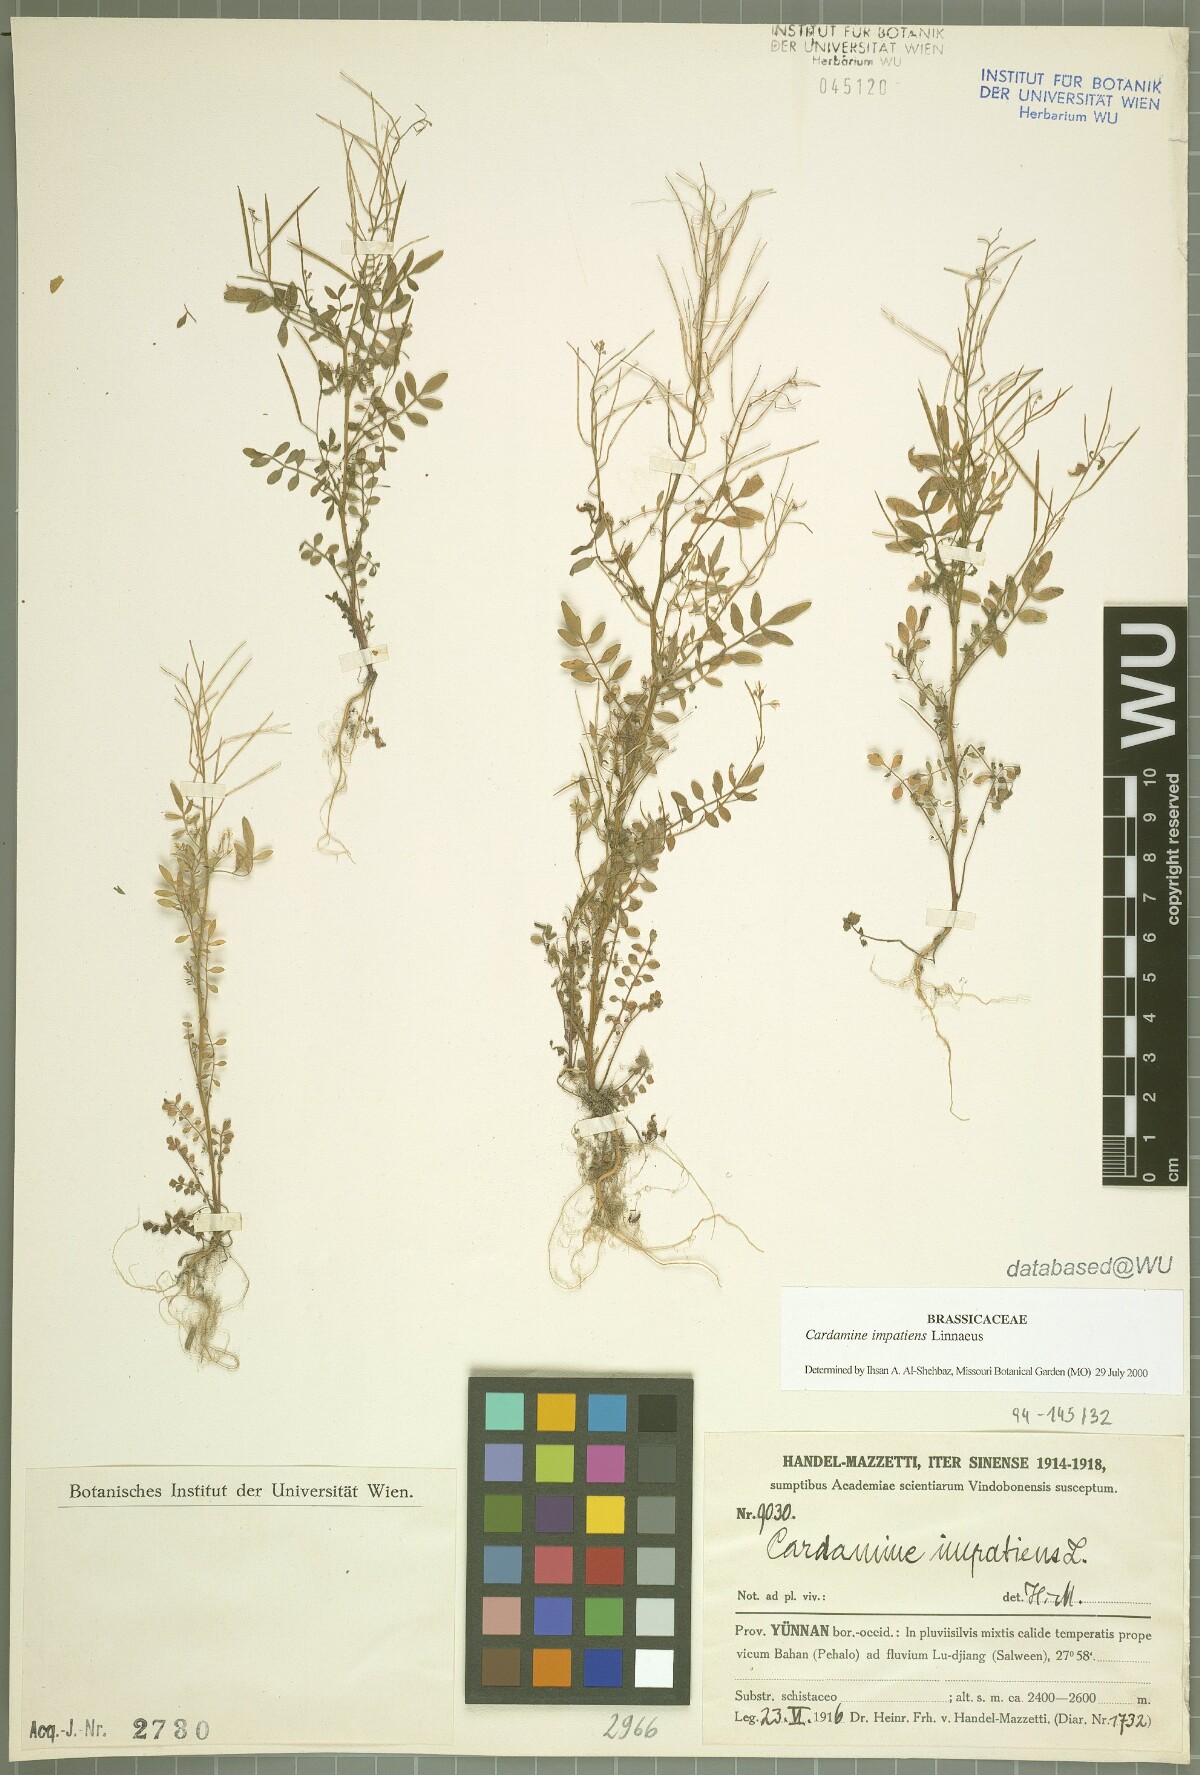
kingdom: Plantae
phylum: Tracheophyta
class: Magnoliopsida
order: Brassicales
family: Brassicaceae
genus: Cardamine
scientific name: Cardamine impatiens
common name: Narrow-leaved bitter-cress
